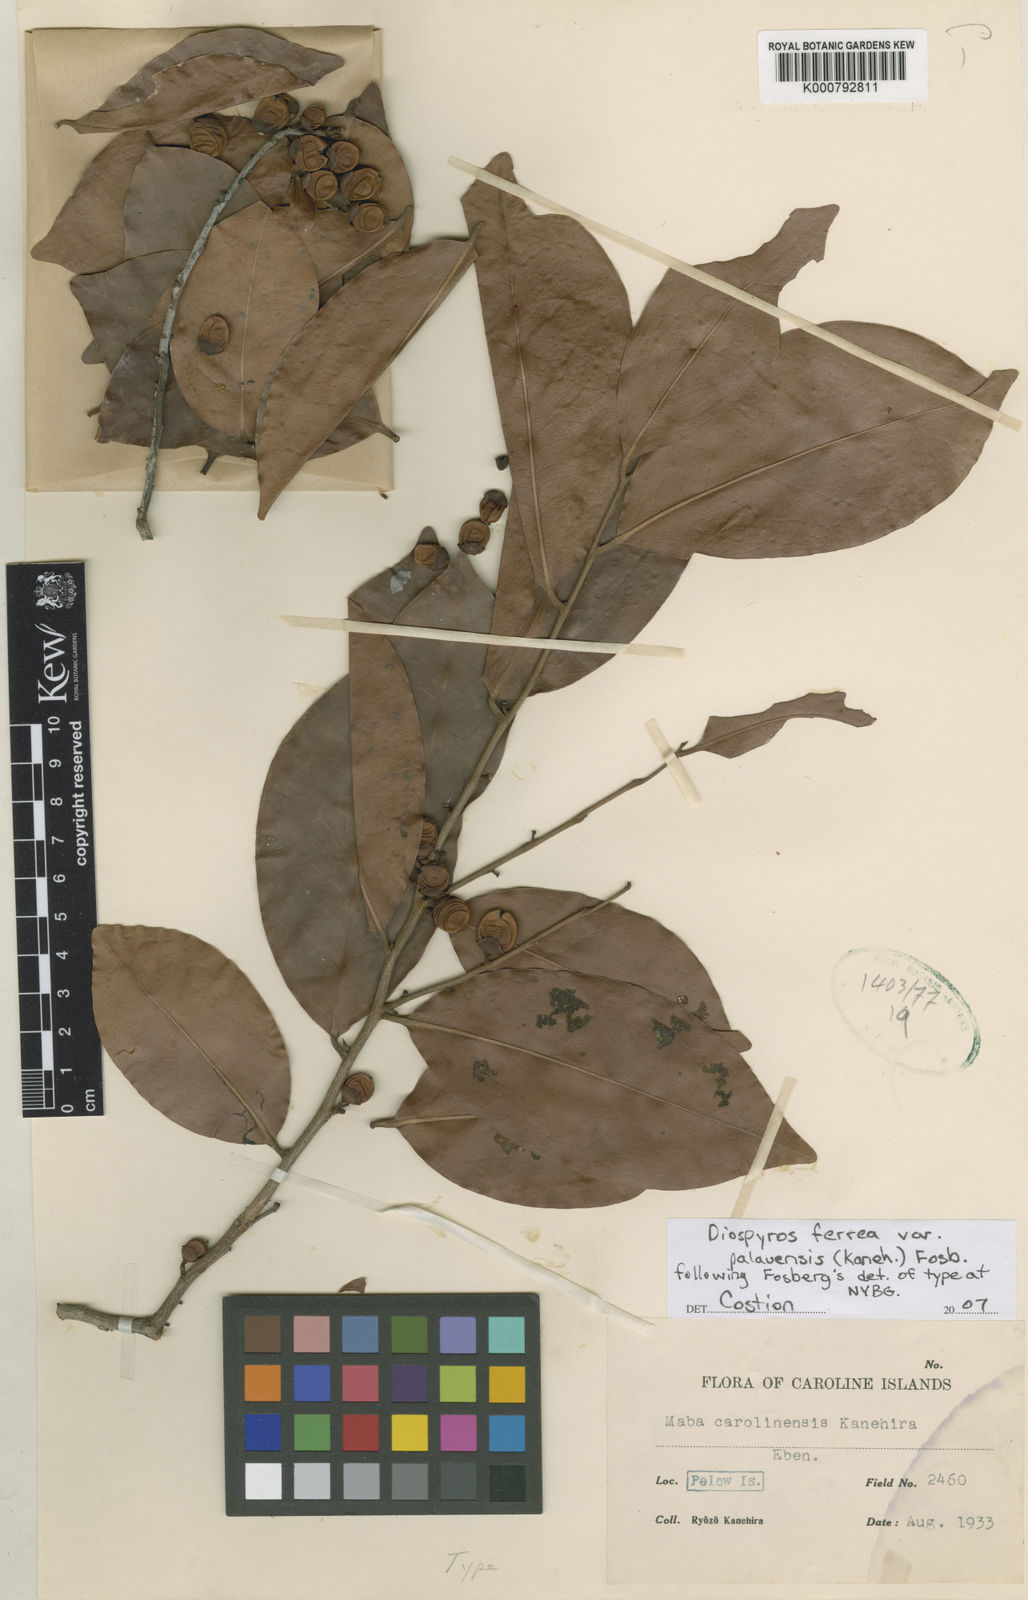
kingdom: Plantae
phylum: Tracheophyta
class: Magnoliopsida
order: Ericales
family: Ebenaceae
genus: Diospyros
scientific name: Diospyros ferrea
